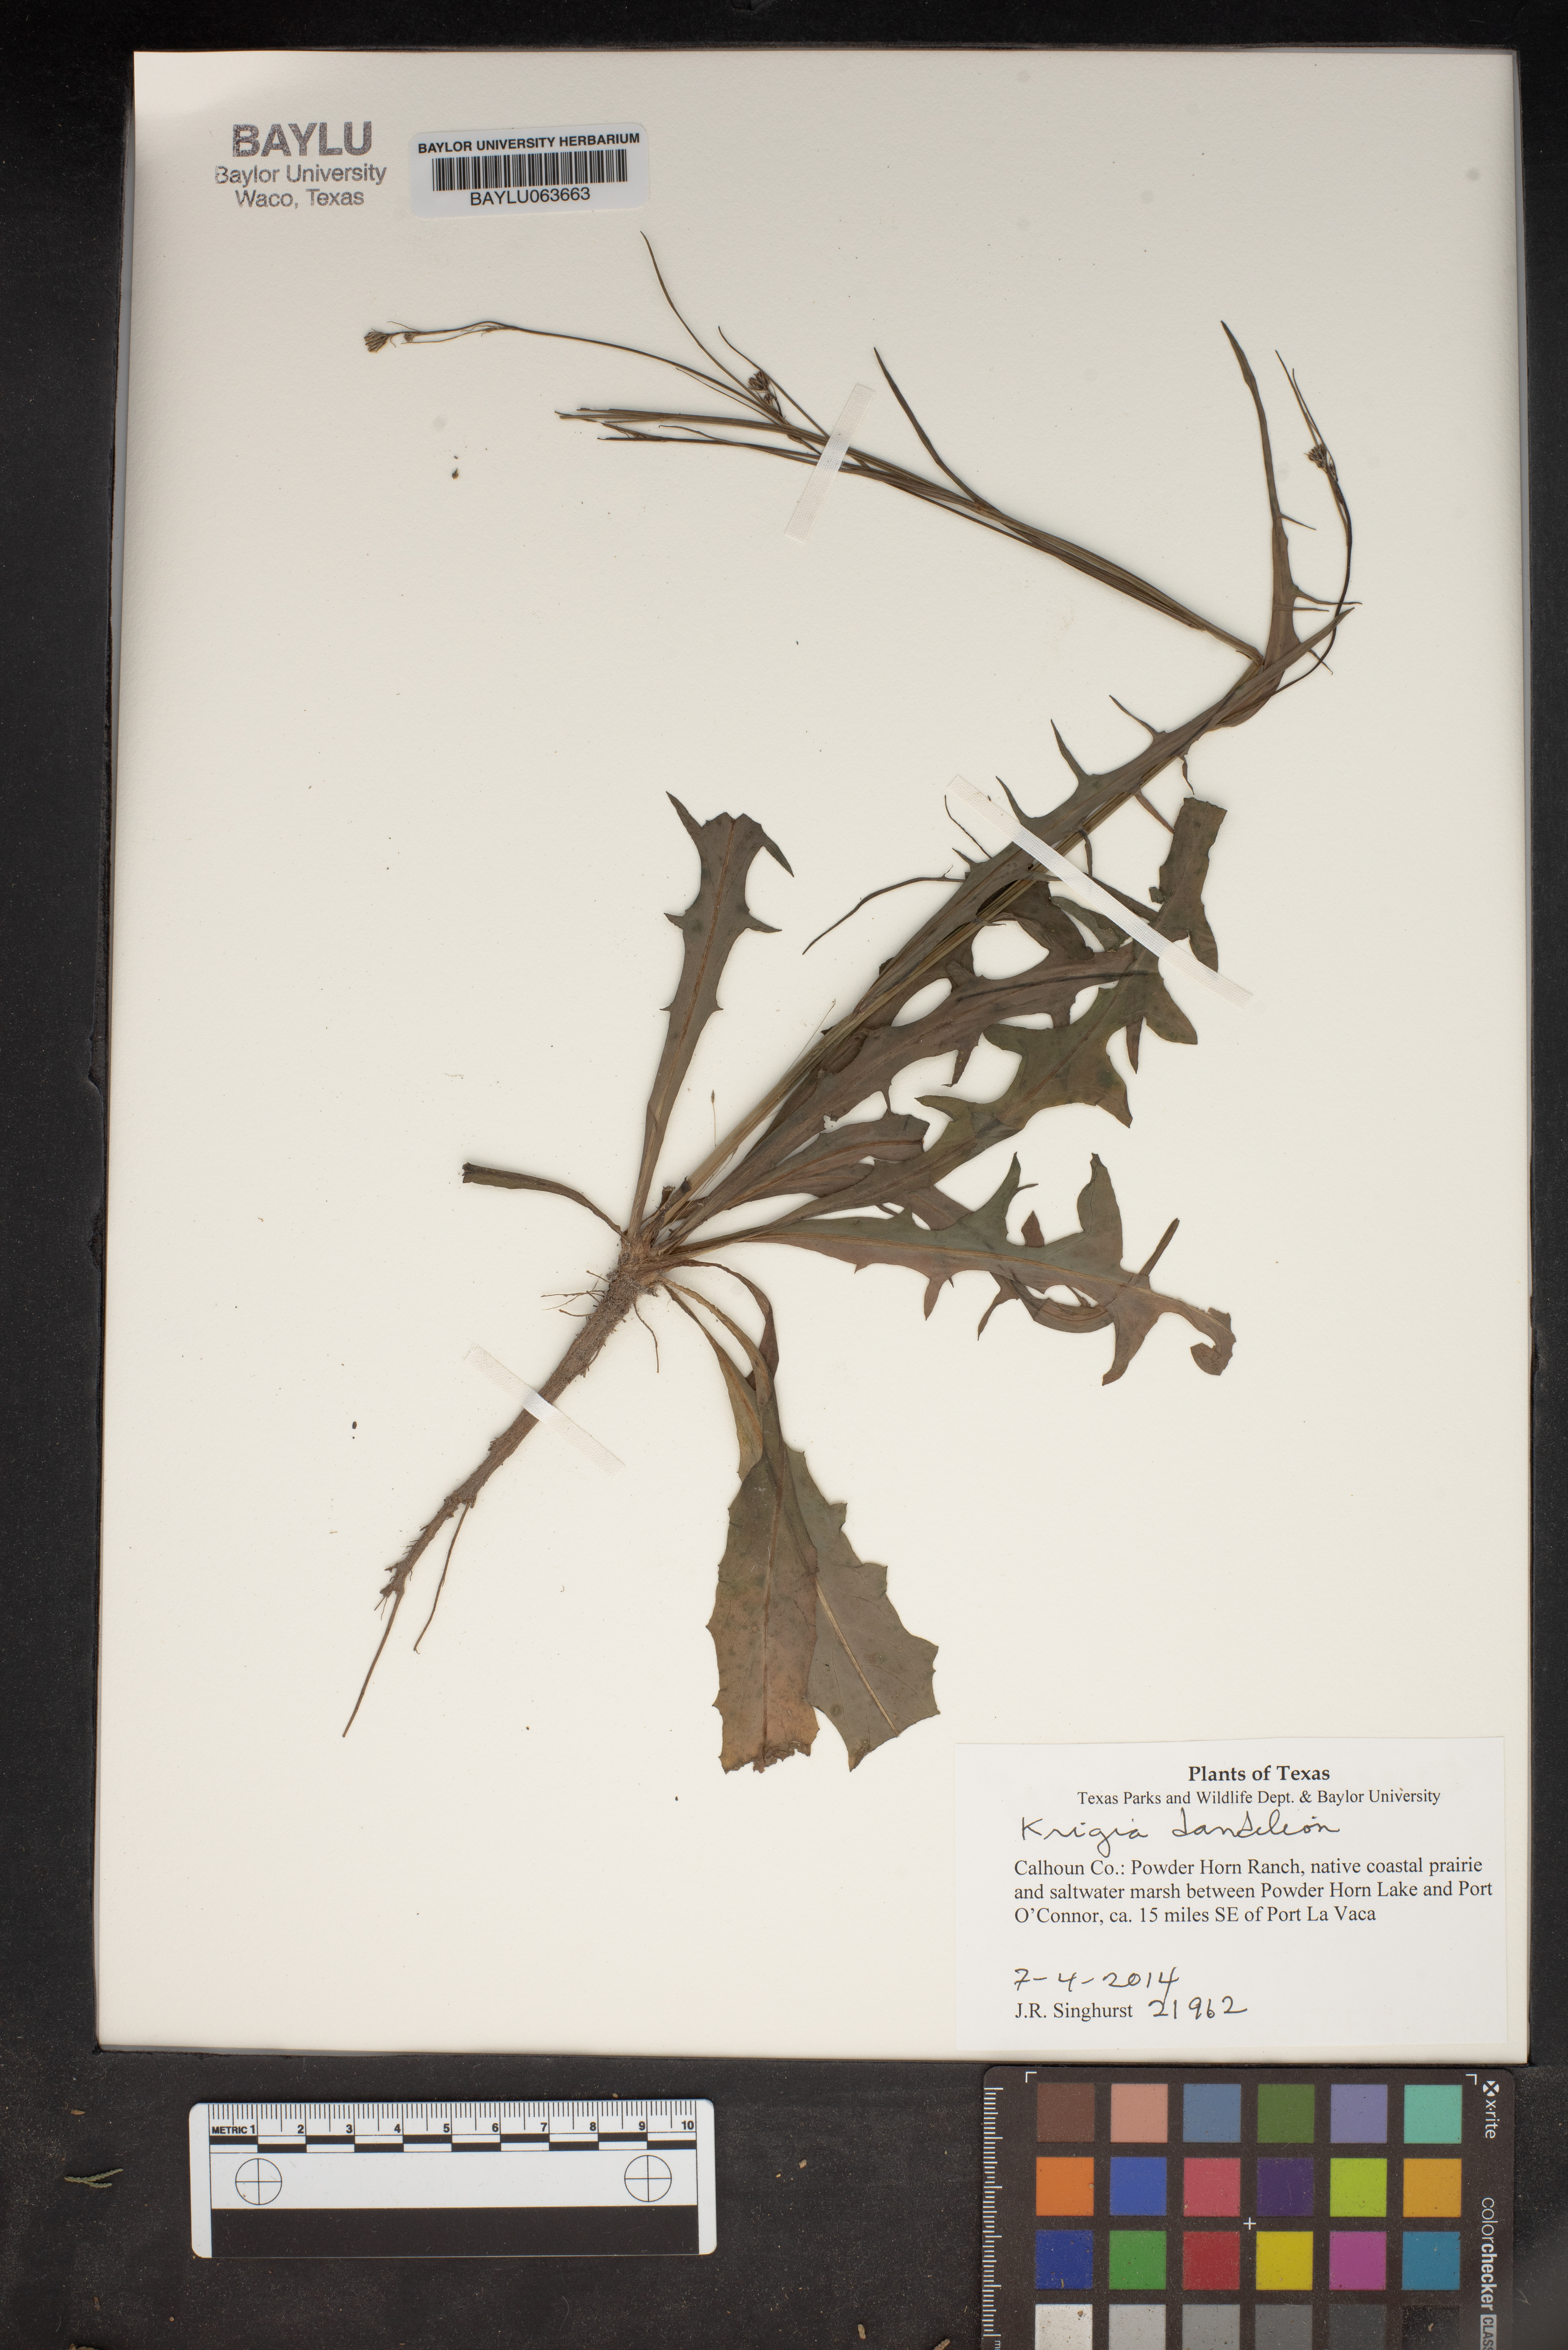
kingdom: Plantae
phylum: Tracheophyta
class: Magnoliopsida
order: Asterales
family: Asteraceae
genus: Krigia
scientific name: Krigia dandelion
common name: Colonial dwarf-dandelion
